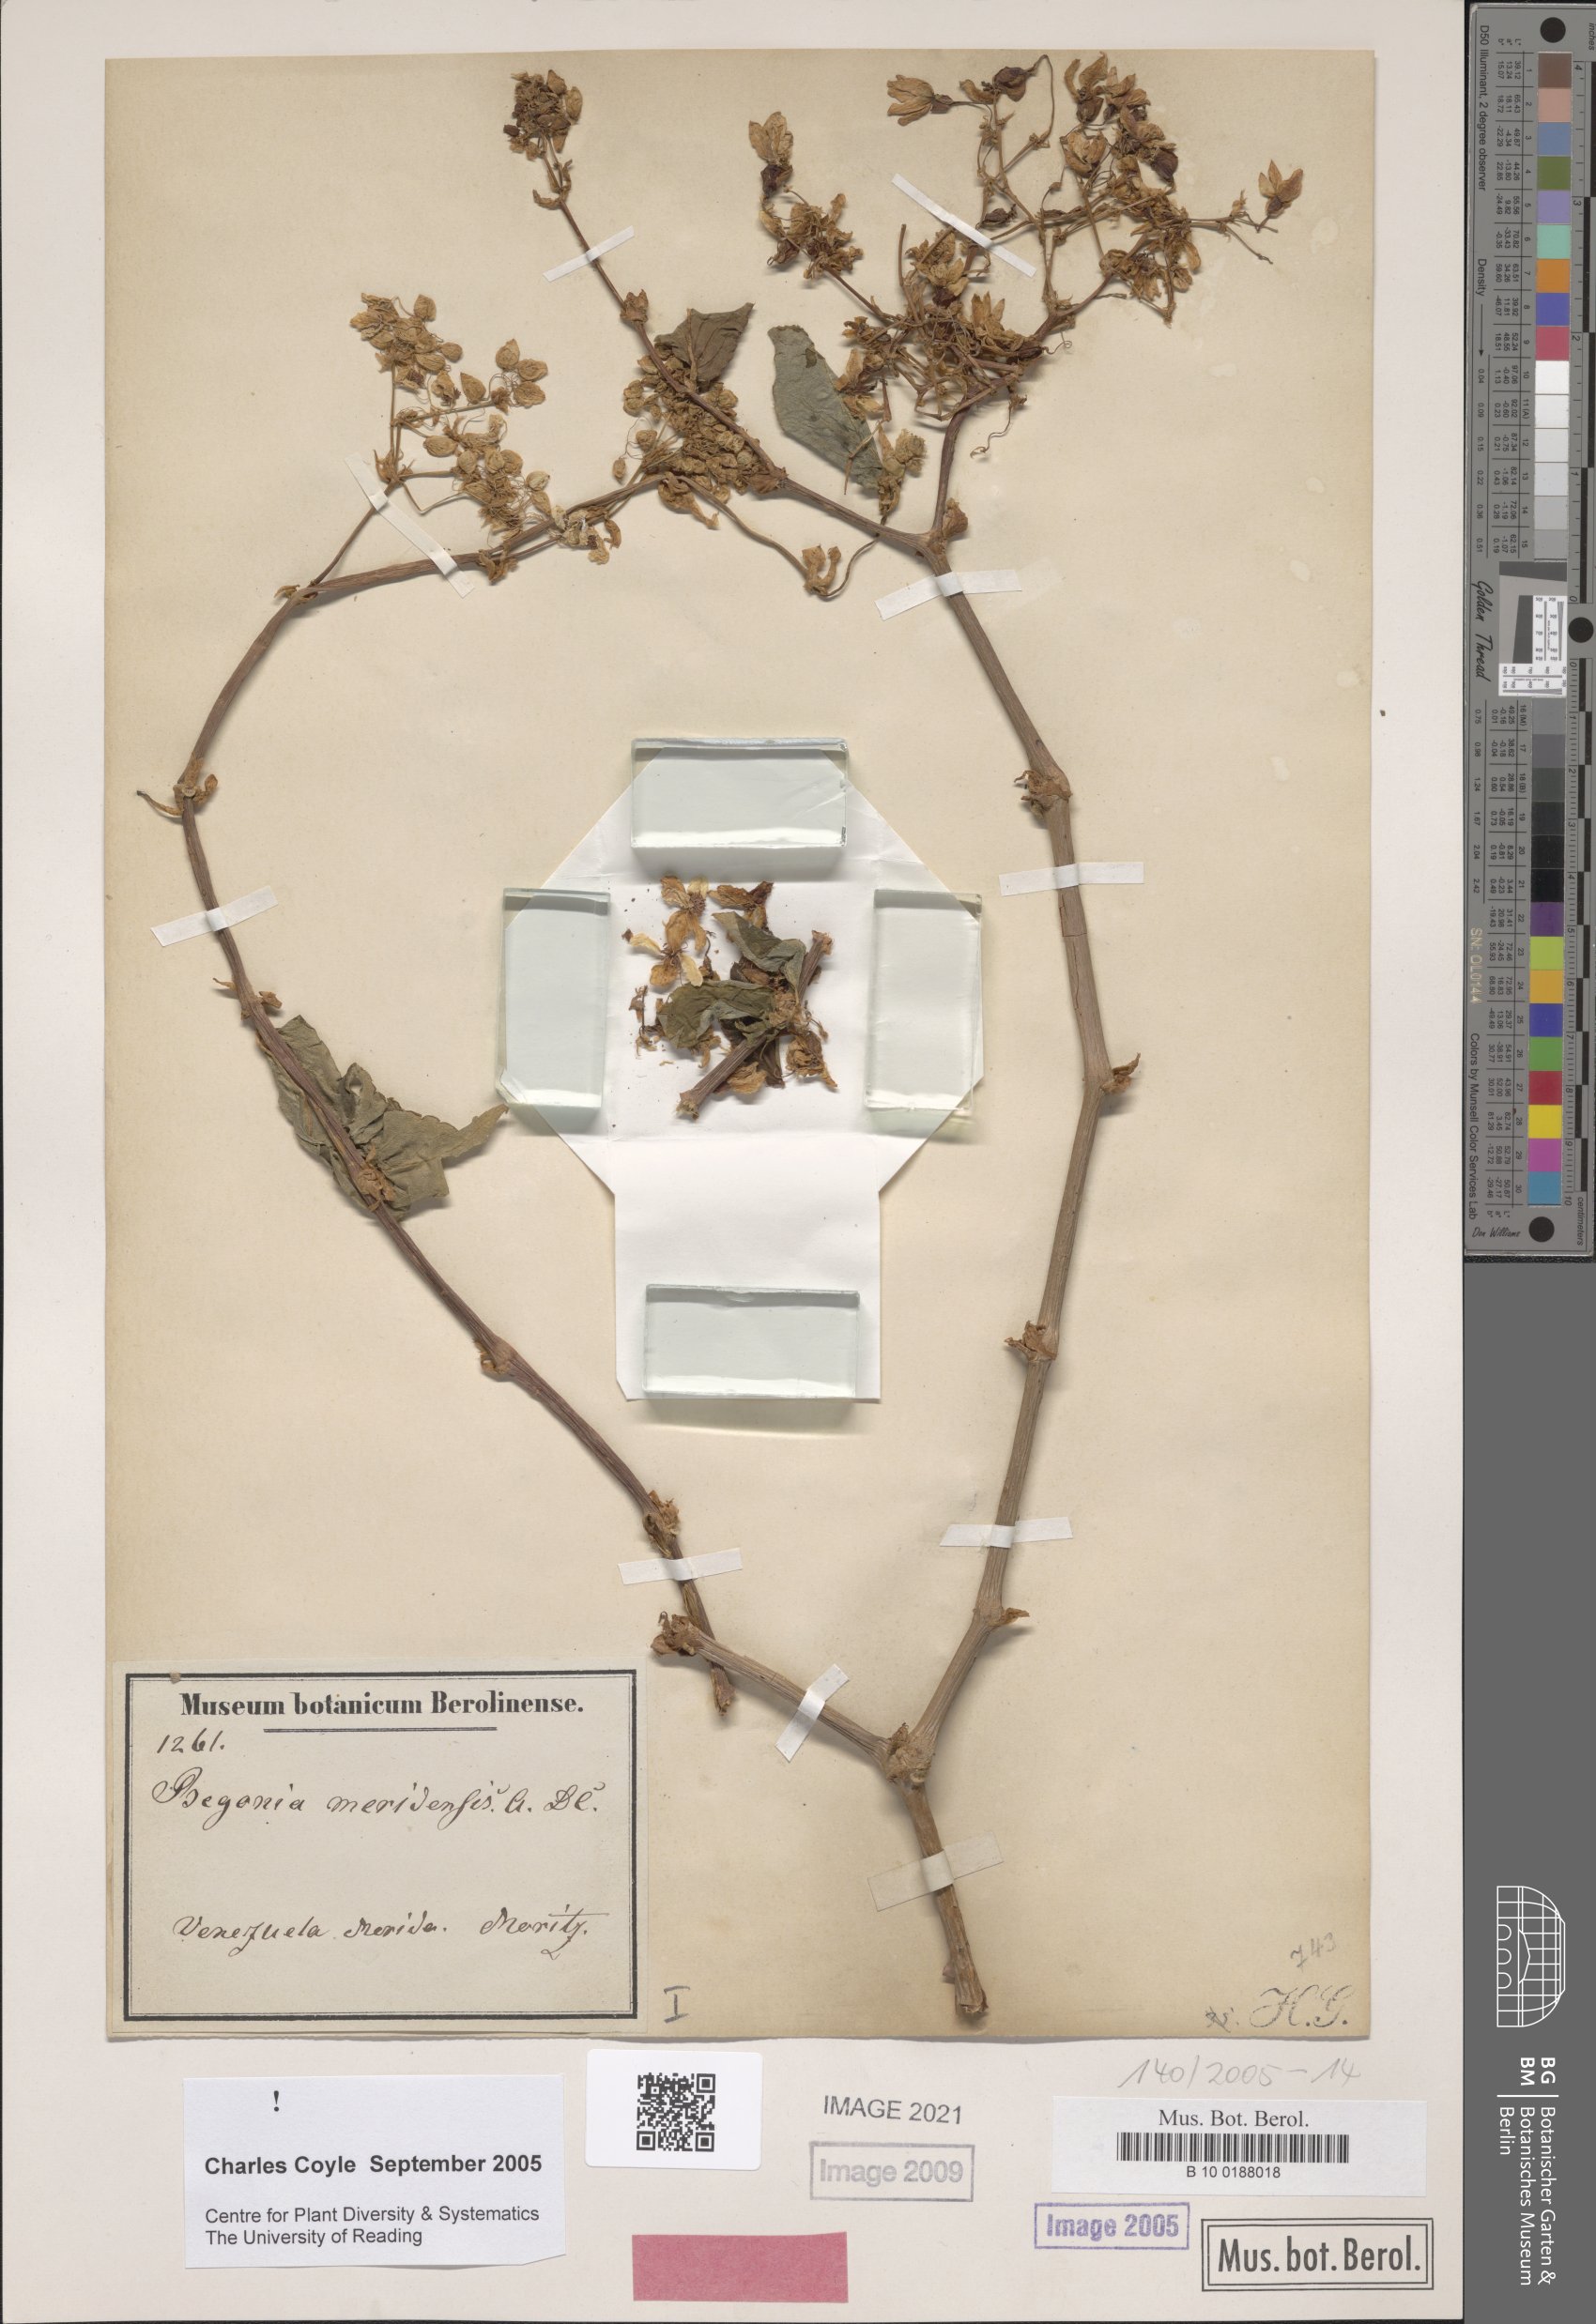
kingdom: Plantae
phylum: Tracheophyta
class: Magnoliopsida
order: Cucurbitales
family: Begoniaceae
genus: Begonia
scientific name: Begonia meridensis
